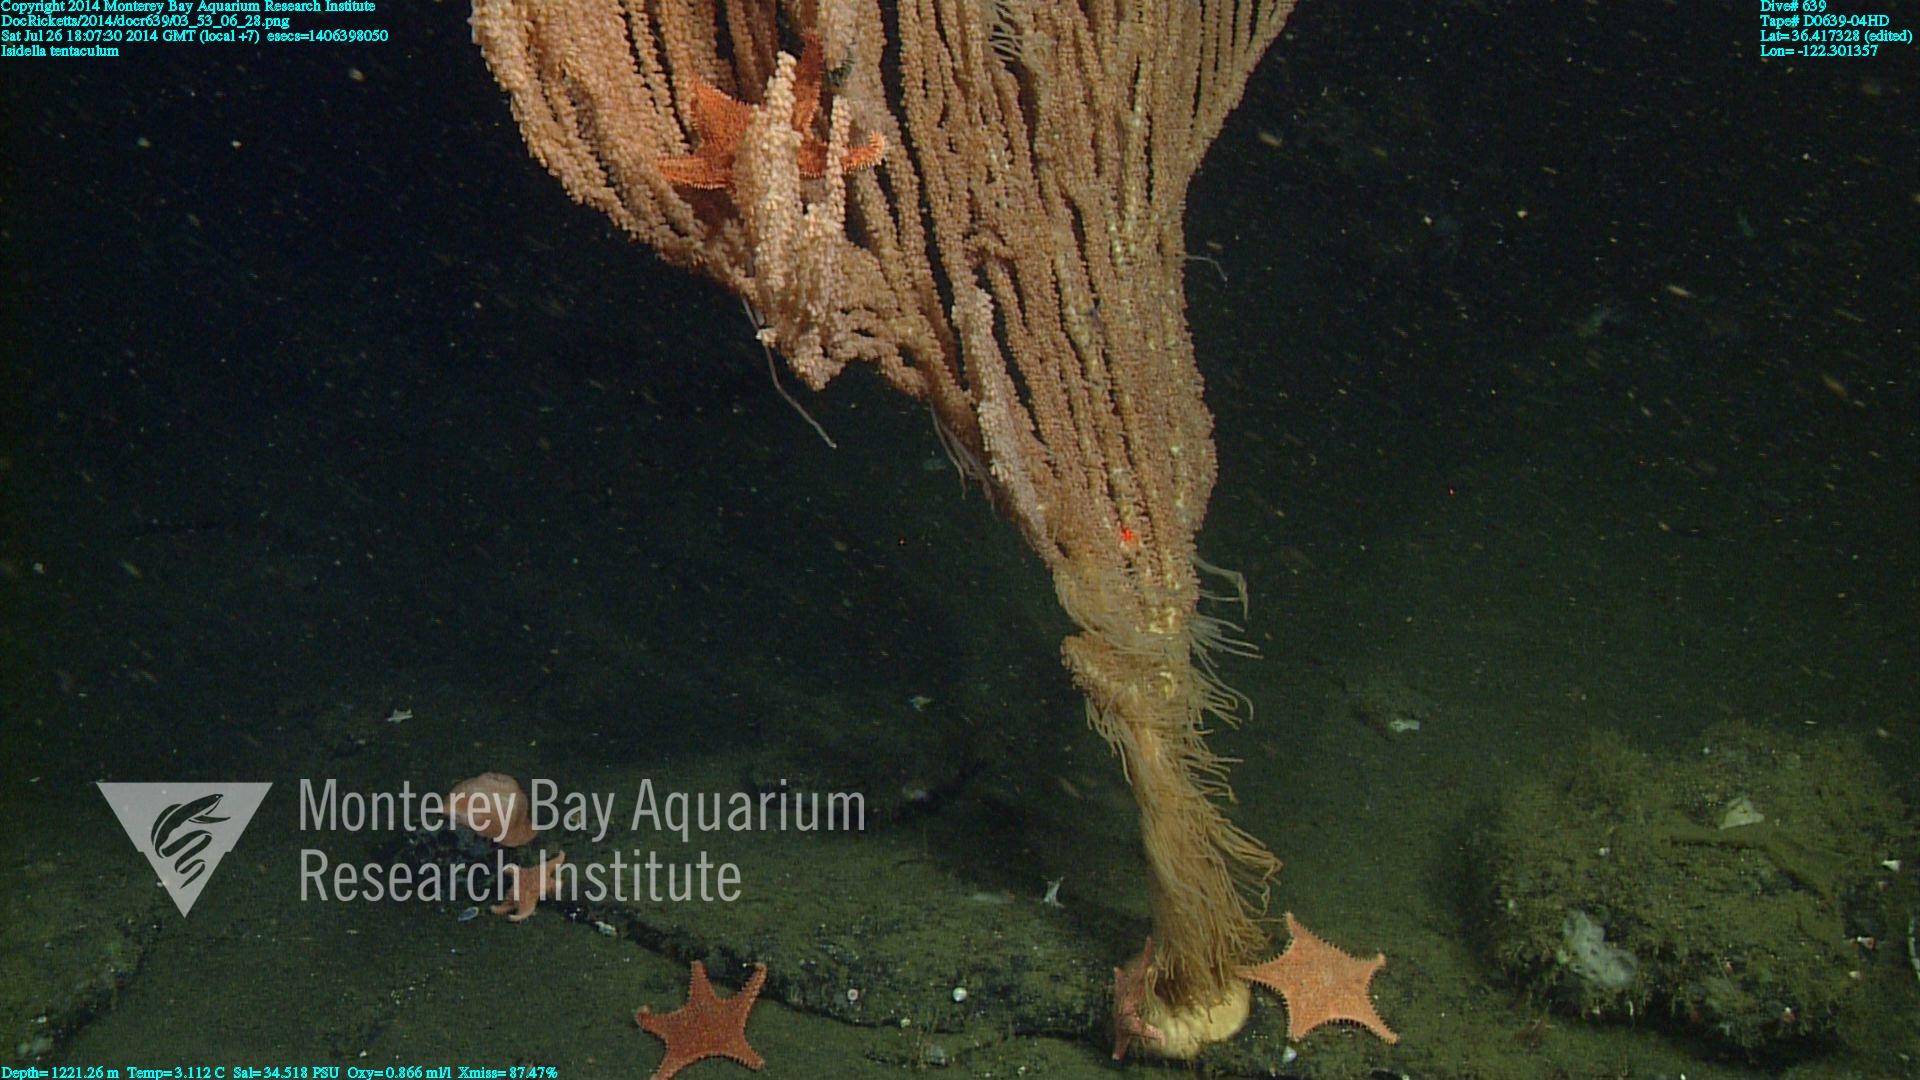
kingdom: Animalia
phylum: Cnidaria
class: Anthozoa
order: Scleralcyonacea
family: Keratoisididae
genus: Isidella
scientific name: Isidella tentaculum
